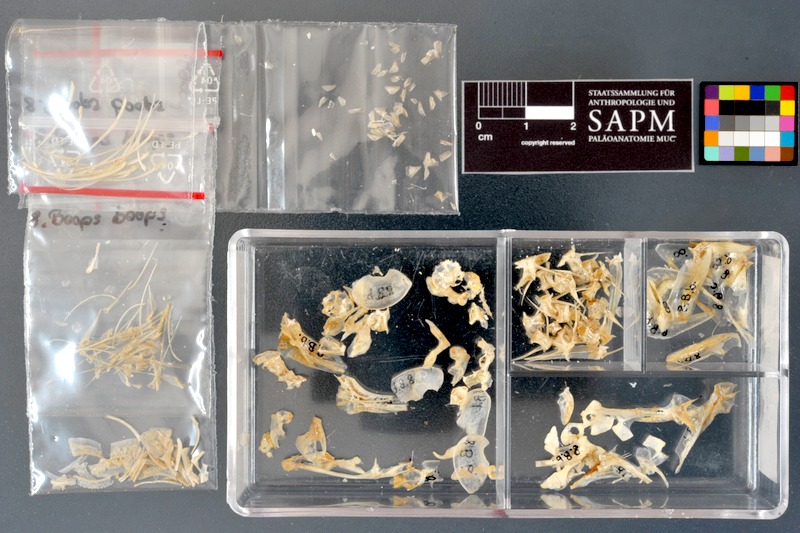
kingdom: Animalia
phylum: Chordata
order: Perciformes
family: Sparidae
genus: Boops
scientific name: Boops boops
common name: Bogue
